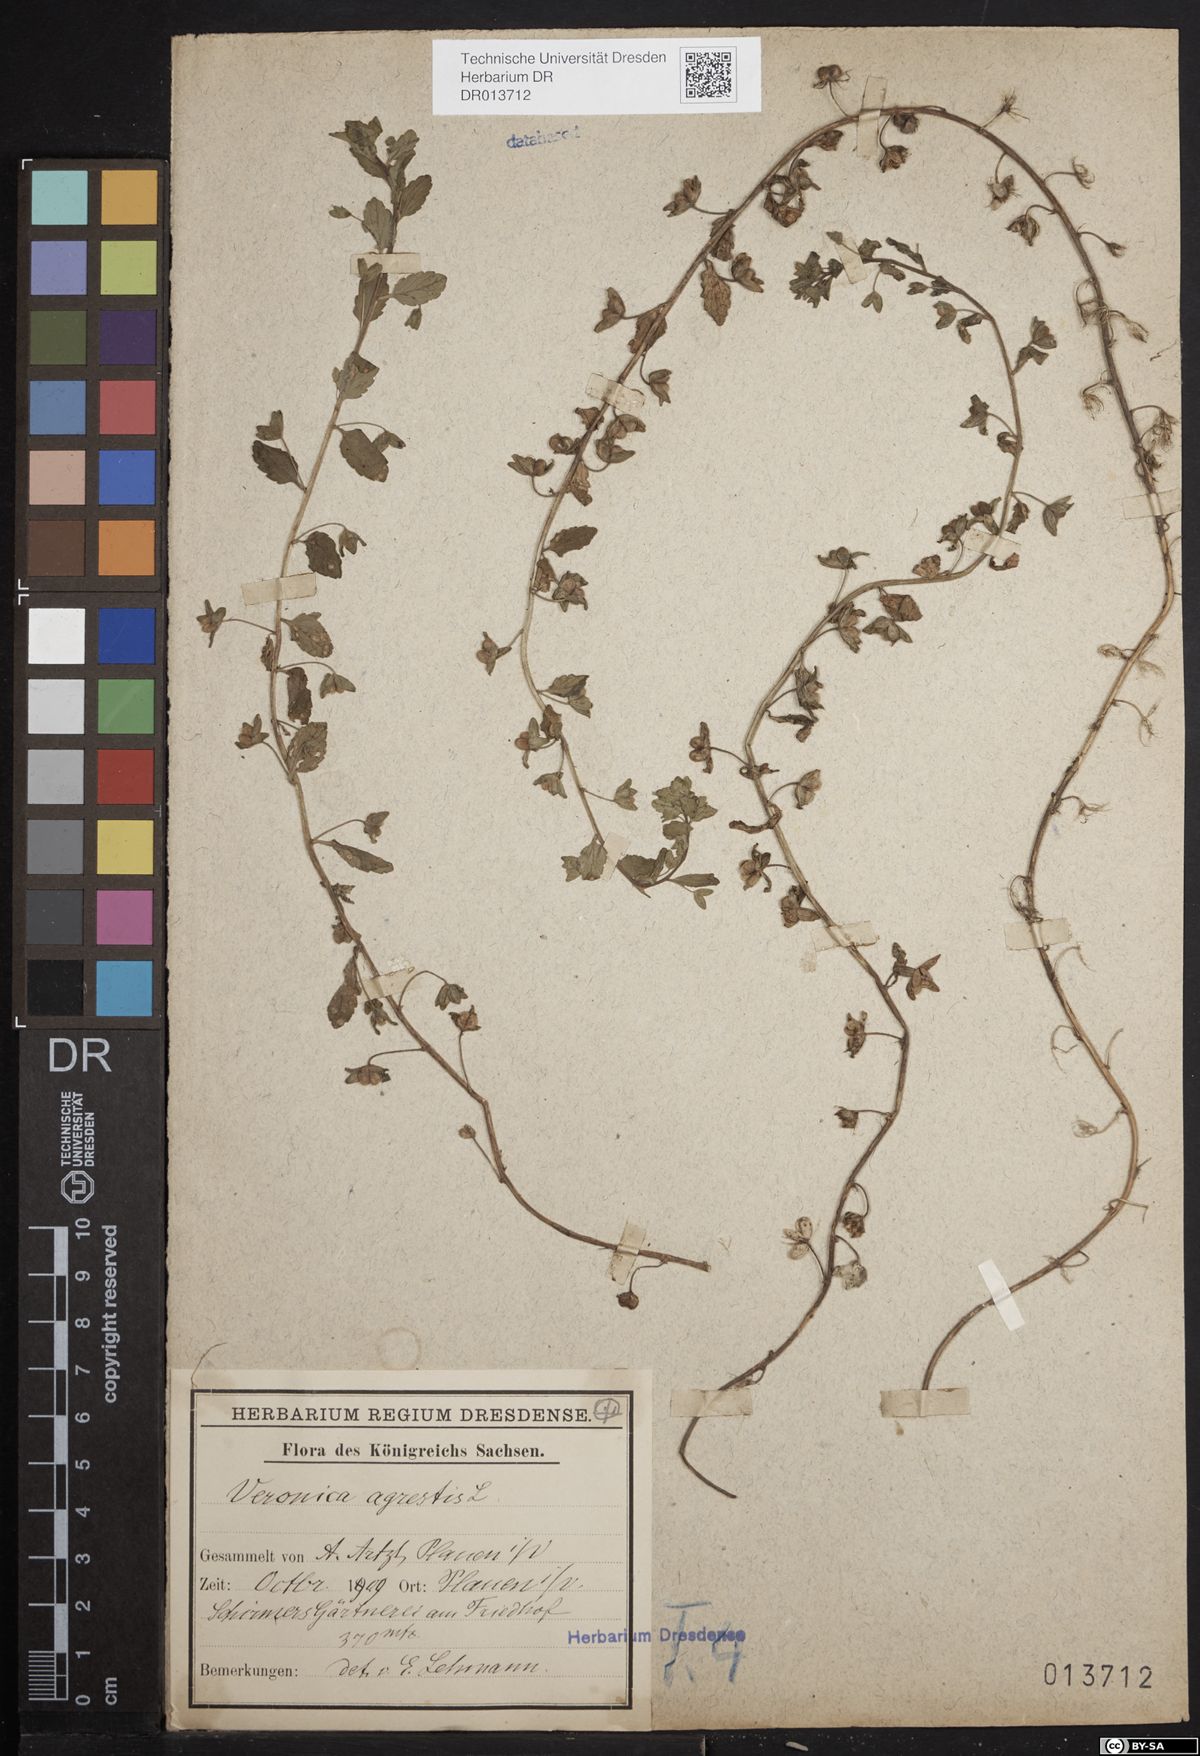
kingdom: Plantae
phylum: Tracheophyta
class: Magnoliopsida
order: Lamiales
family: Plantaginaceae
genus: Veronica
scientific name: Veronica agrestis
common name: Green field-speedwell
